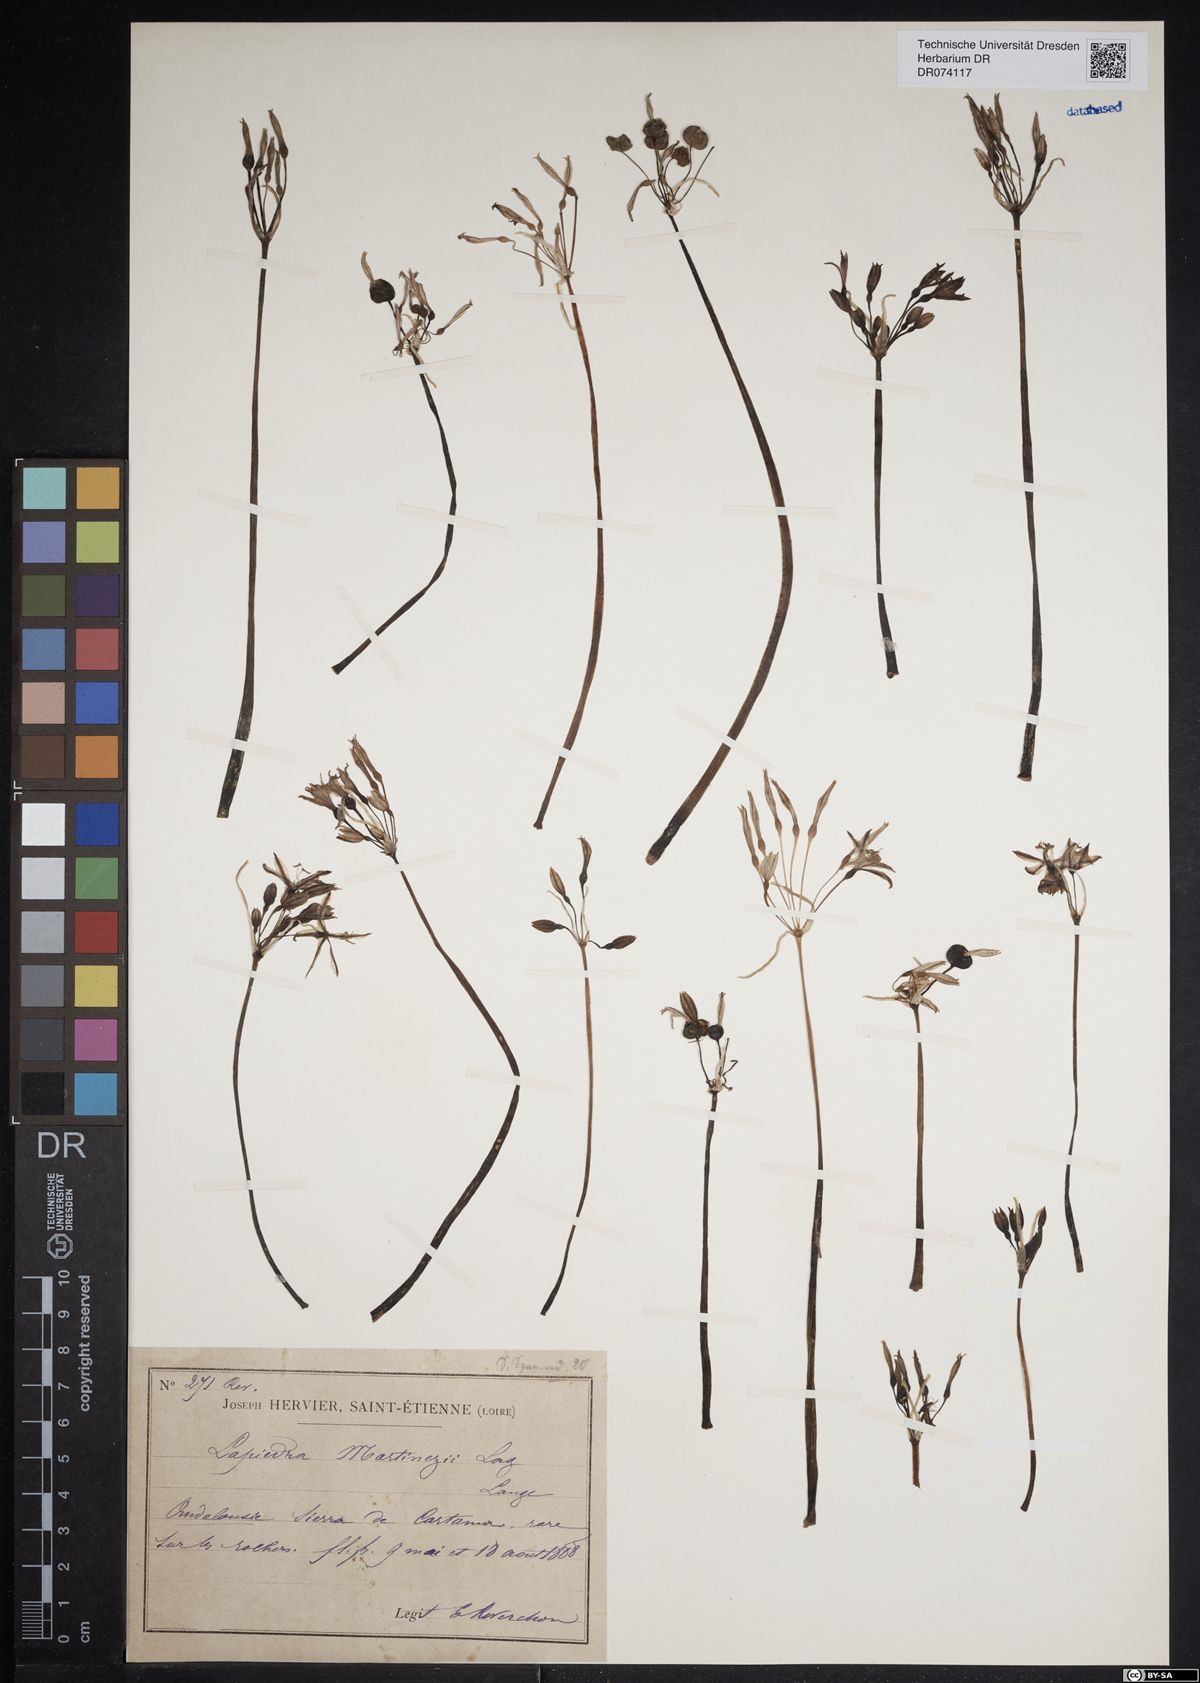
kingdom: Plantae
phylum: Tracheophyta
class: Liliopsida
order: Asparagales
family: Amaryllidaceae
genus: Lapiedra
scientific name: Lapiedra martinezii
